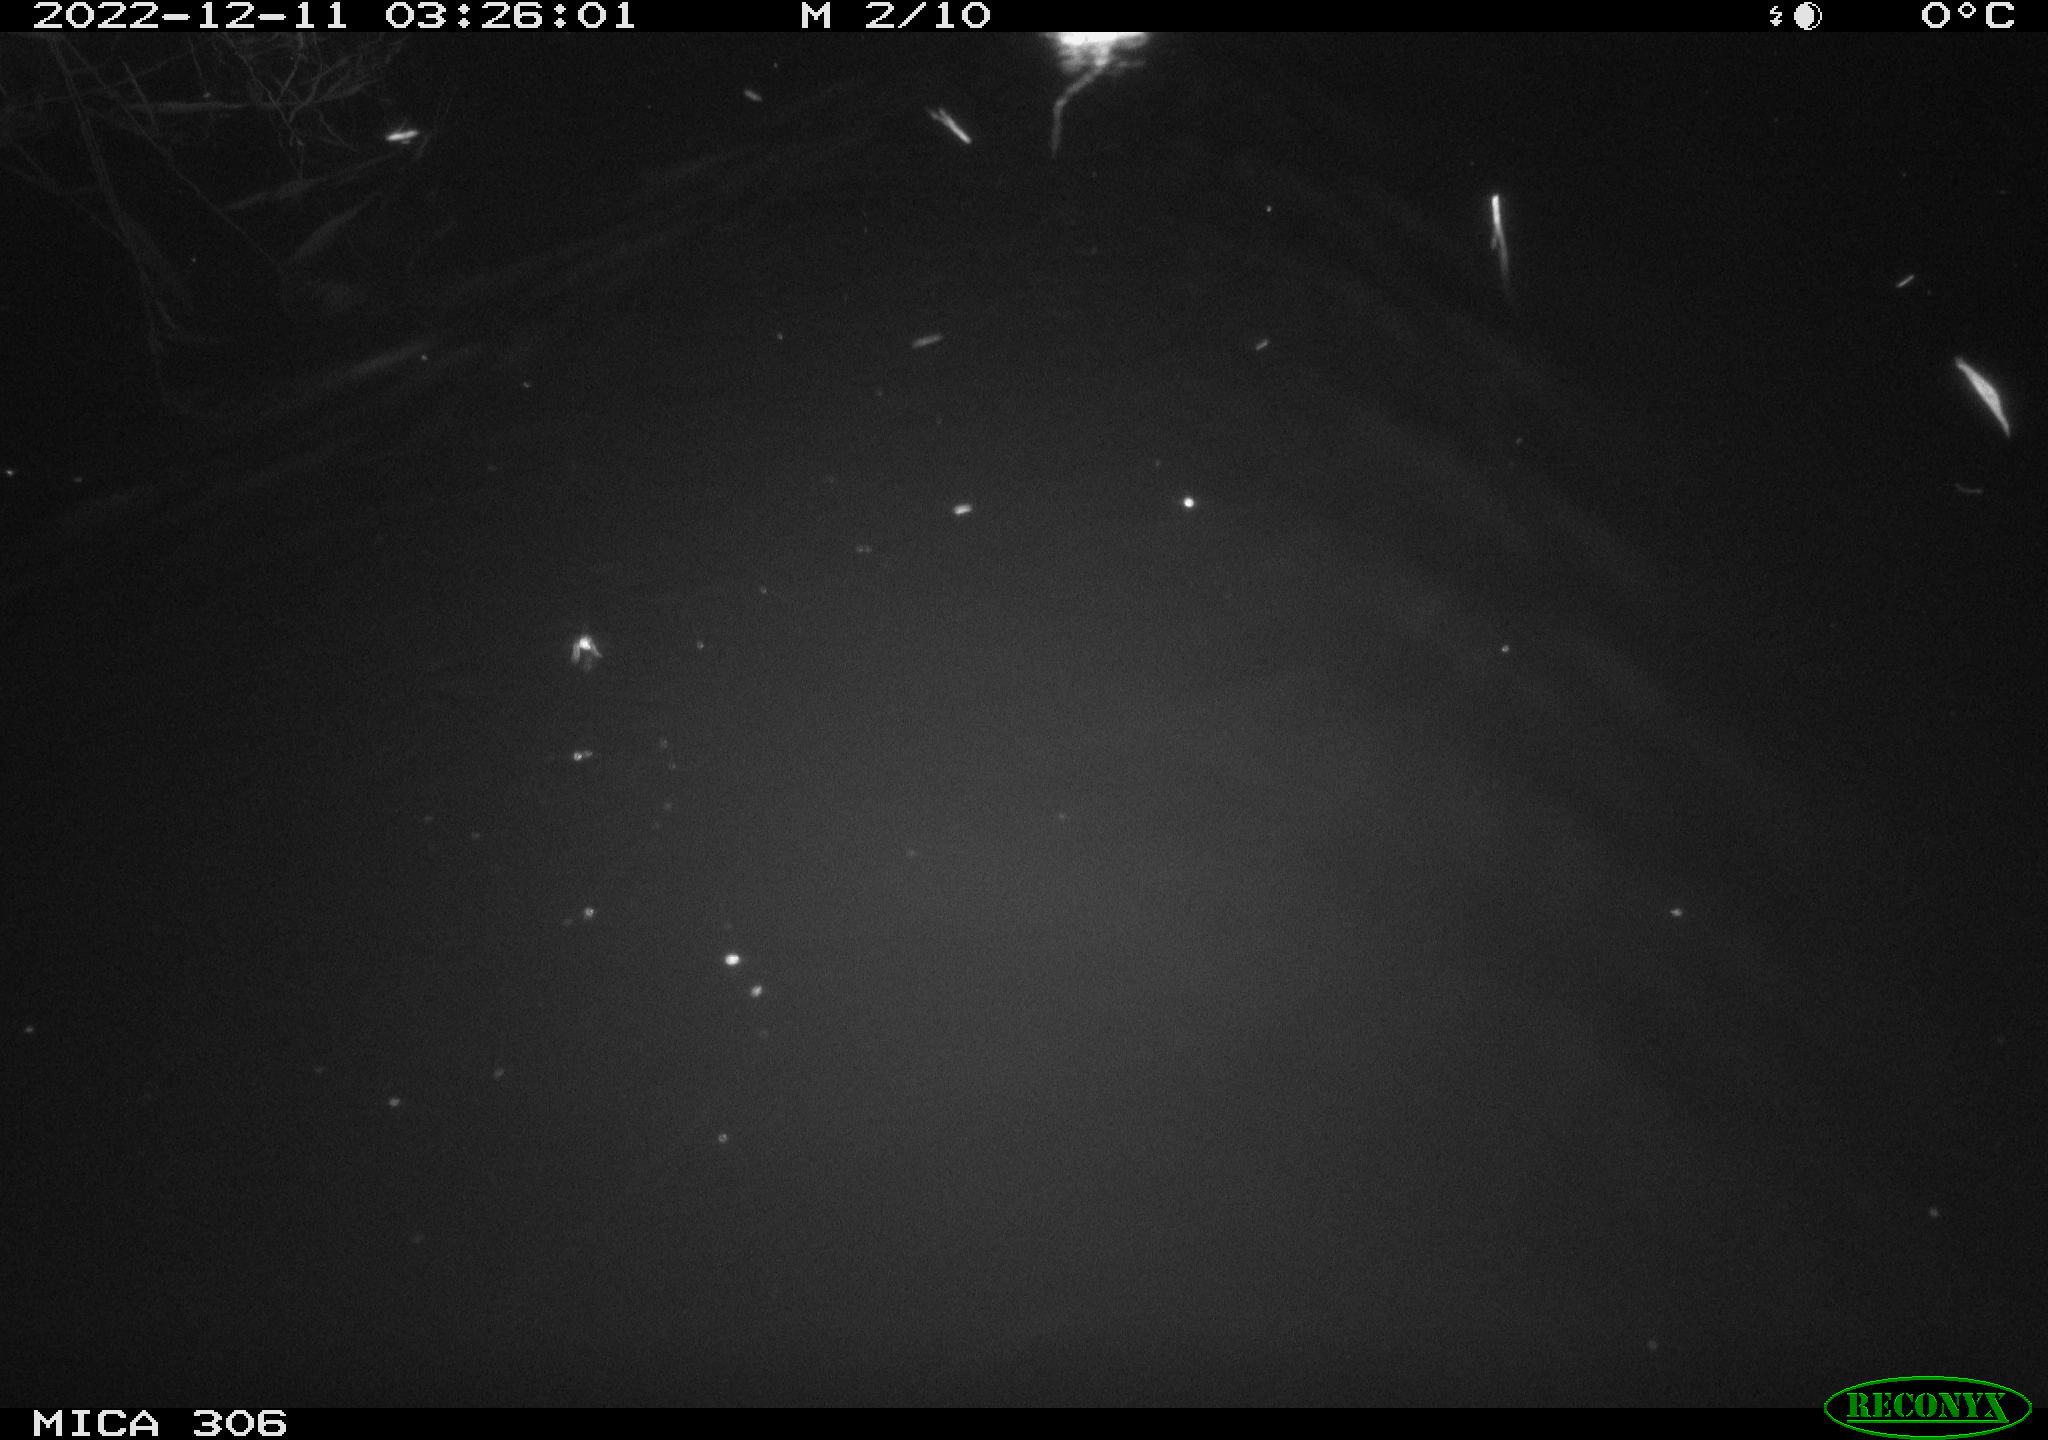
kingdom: Animalia
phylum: Chordata
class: Mammalia
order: Rodentia
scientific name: Rodentia
